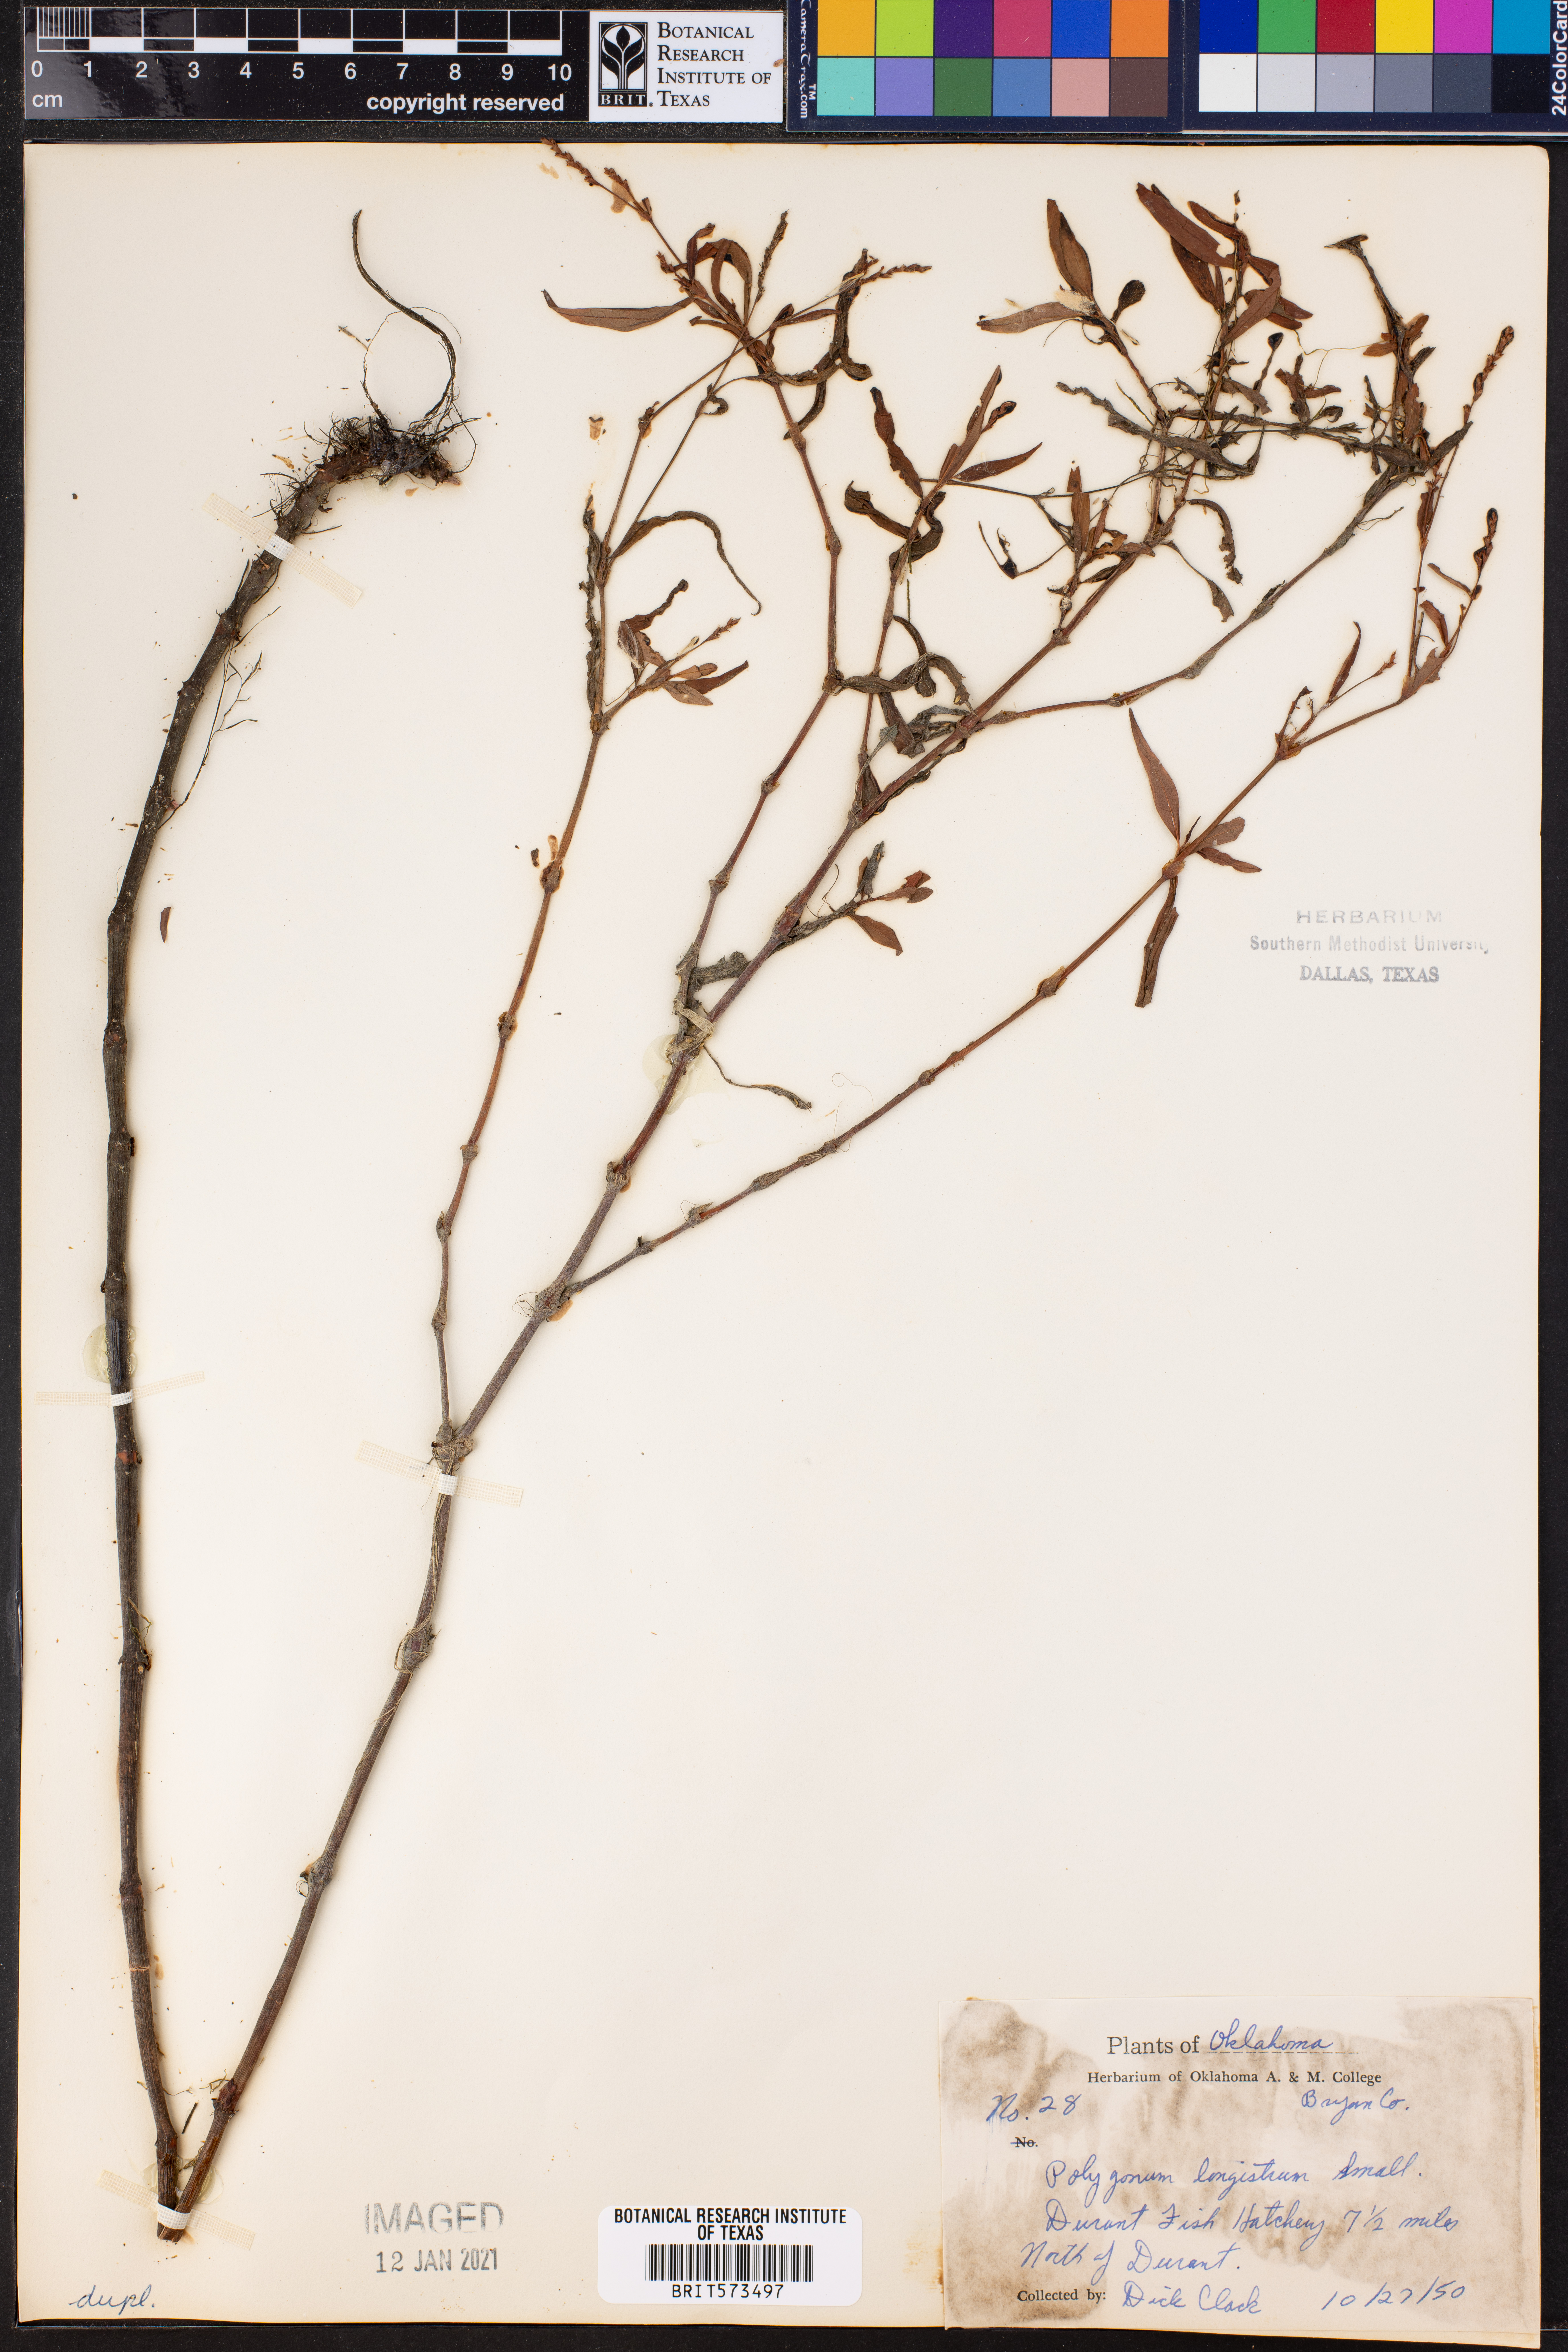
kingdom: Plantae
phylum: Tracheophyta
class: Magnoliopsida
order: Caryophyllales
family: Polygonaceae
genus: Persicaria
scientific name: Persicaria longiseta
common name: Bristly lady's-thumb
